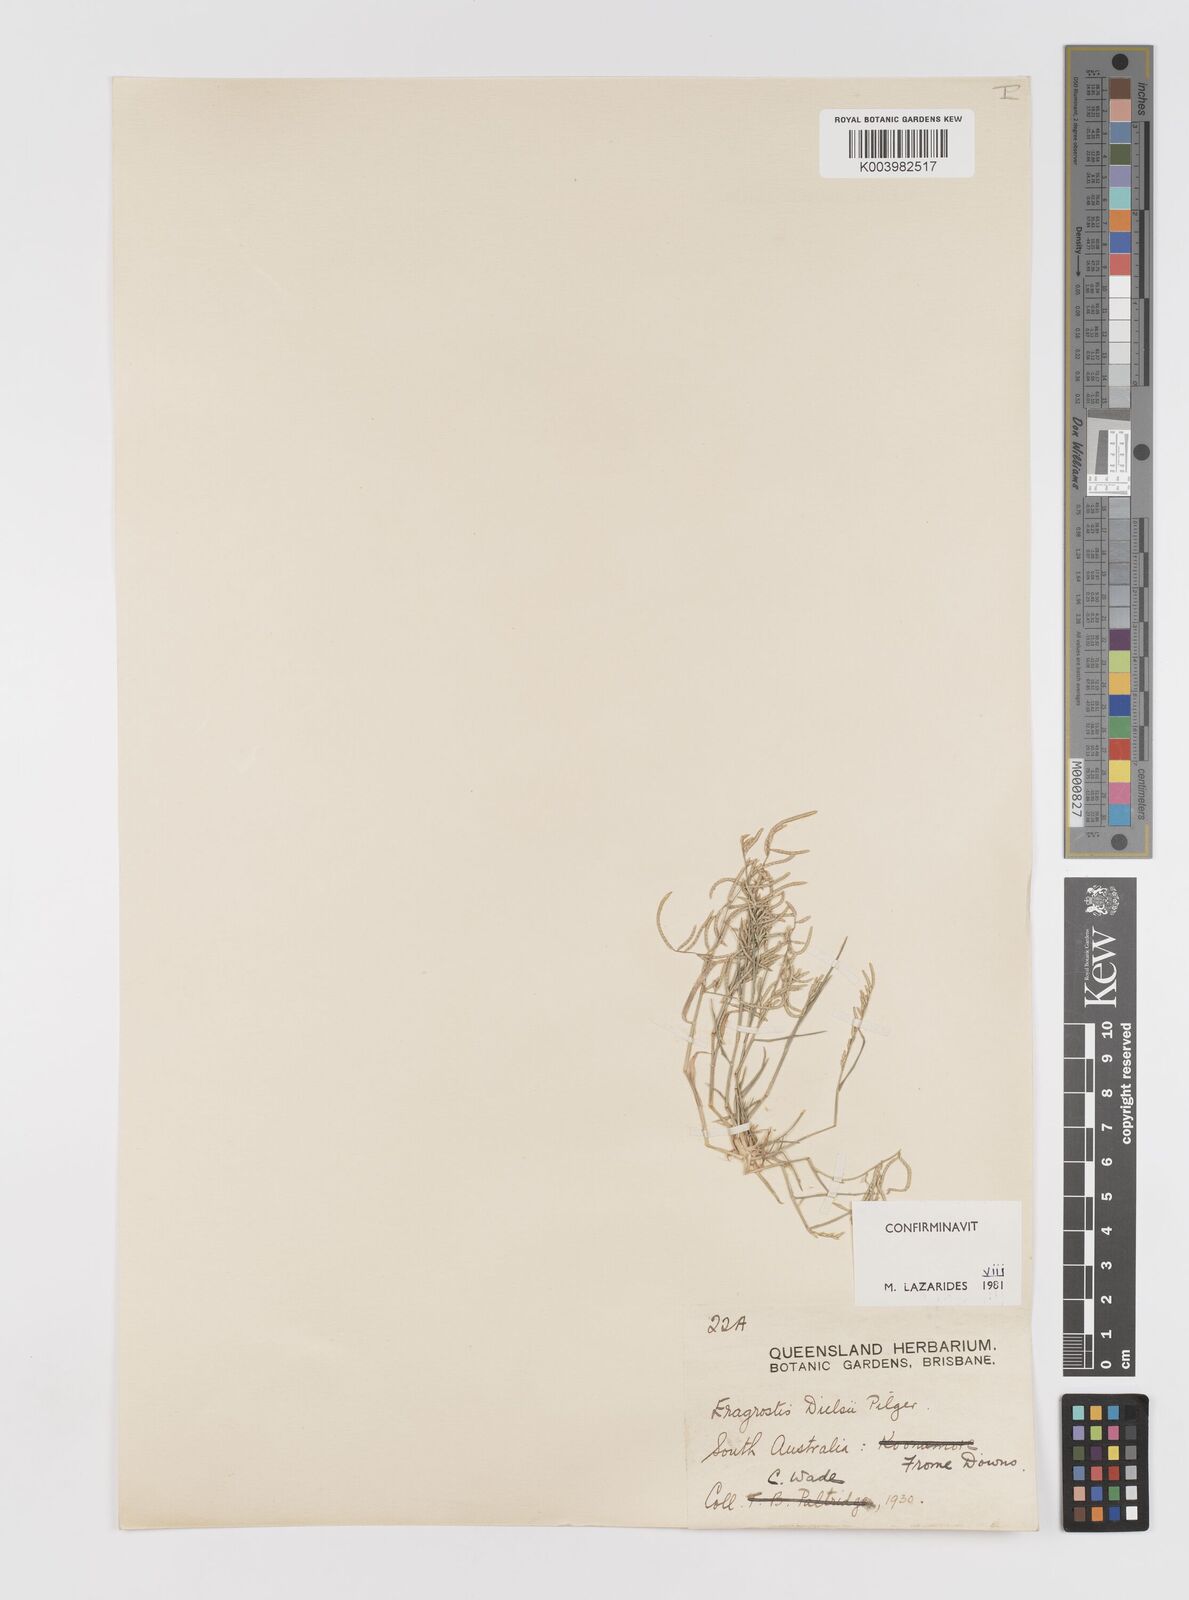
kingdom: Plantae
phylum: Tracheophyta
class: Liliopsida
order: Poales
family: Poaceae
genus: Eragrostis
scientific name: Eragrostis dielsii
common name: Lovegrass
